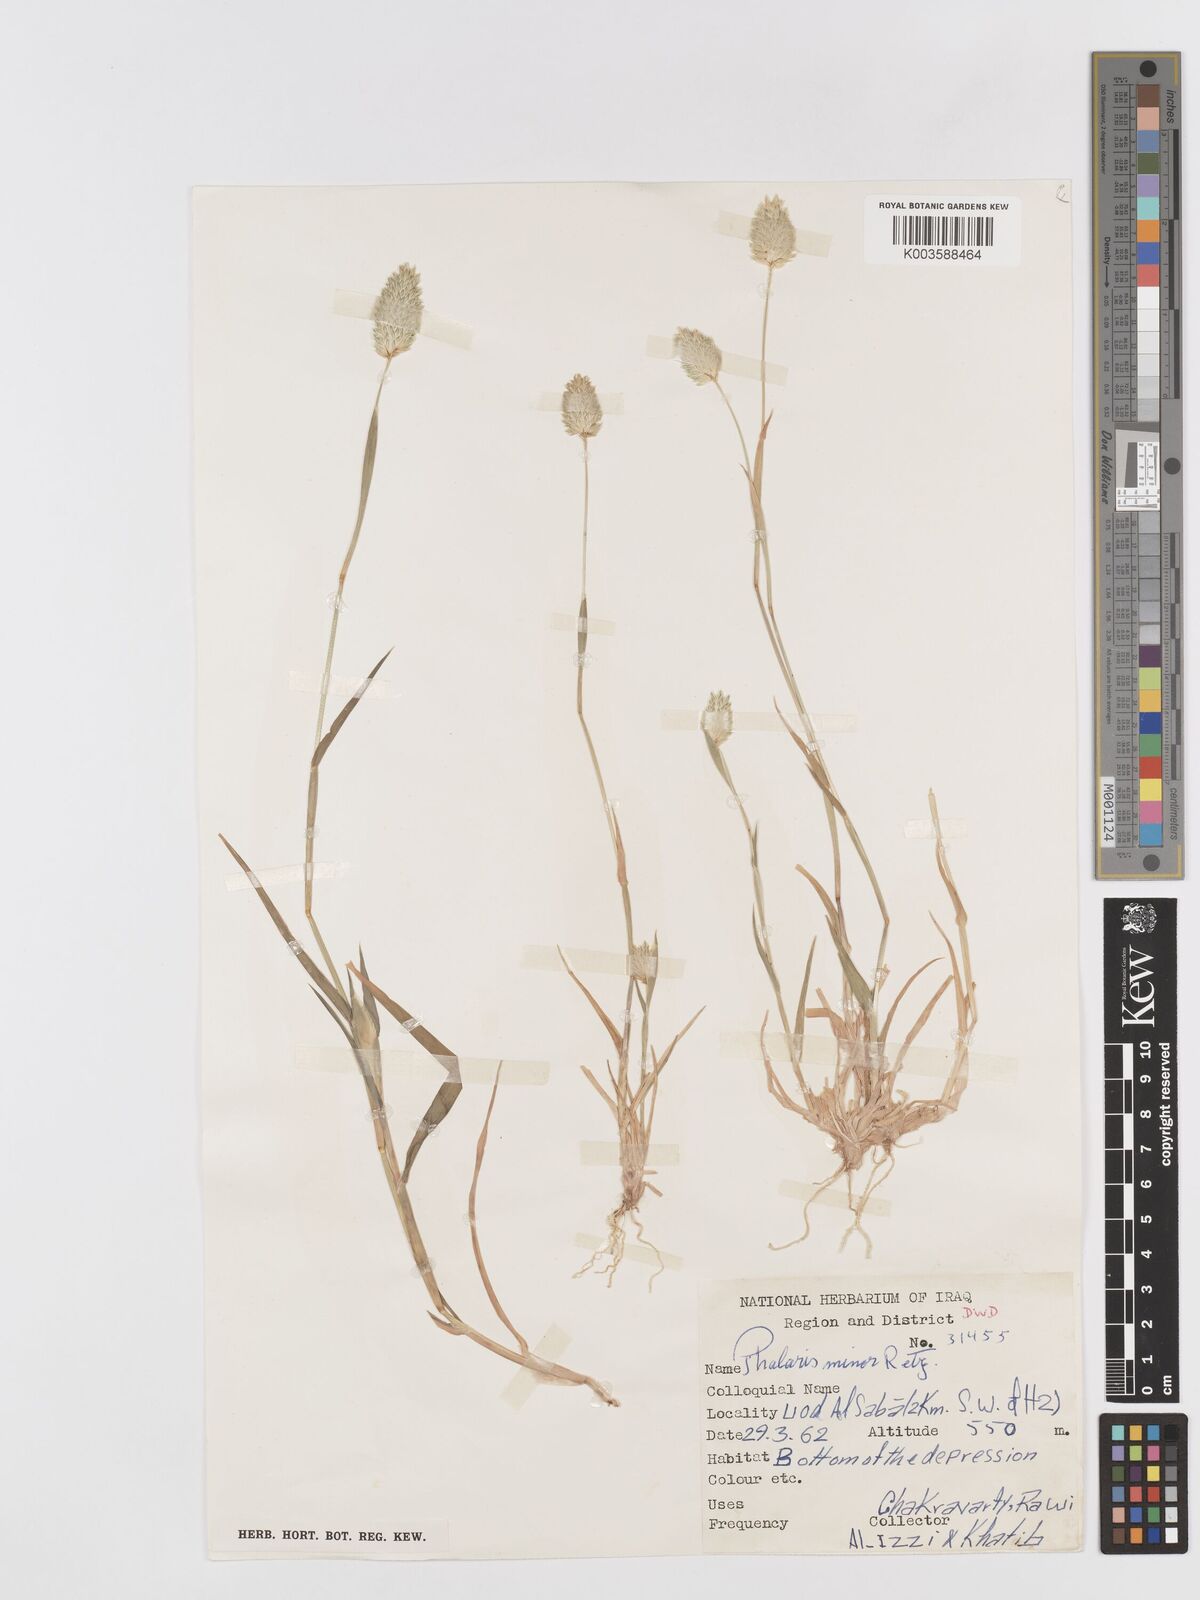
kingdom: Plantae
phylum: Tracheophyta
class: Liliopsida
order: Poales
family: Poaceae
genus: Phalaris
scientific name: Phalaris minor
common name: Littleseed canarygrass
